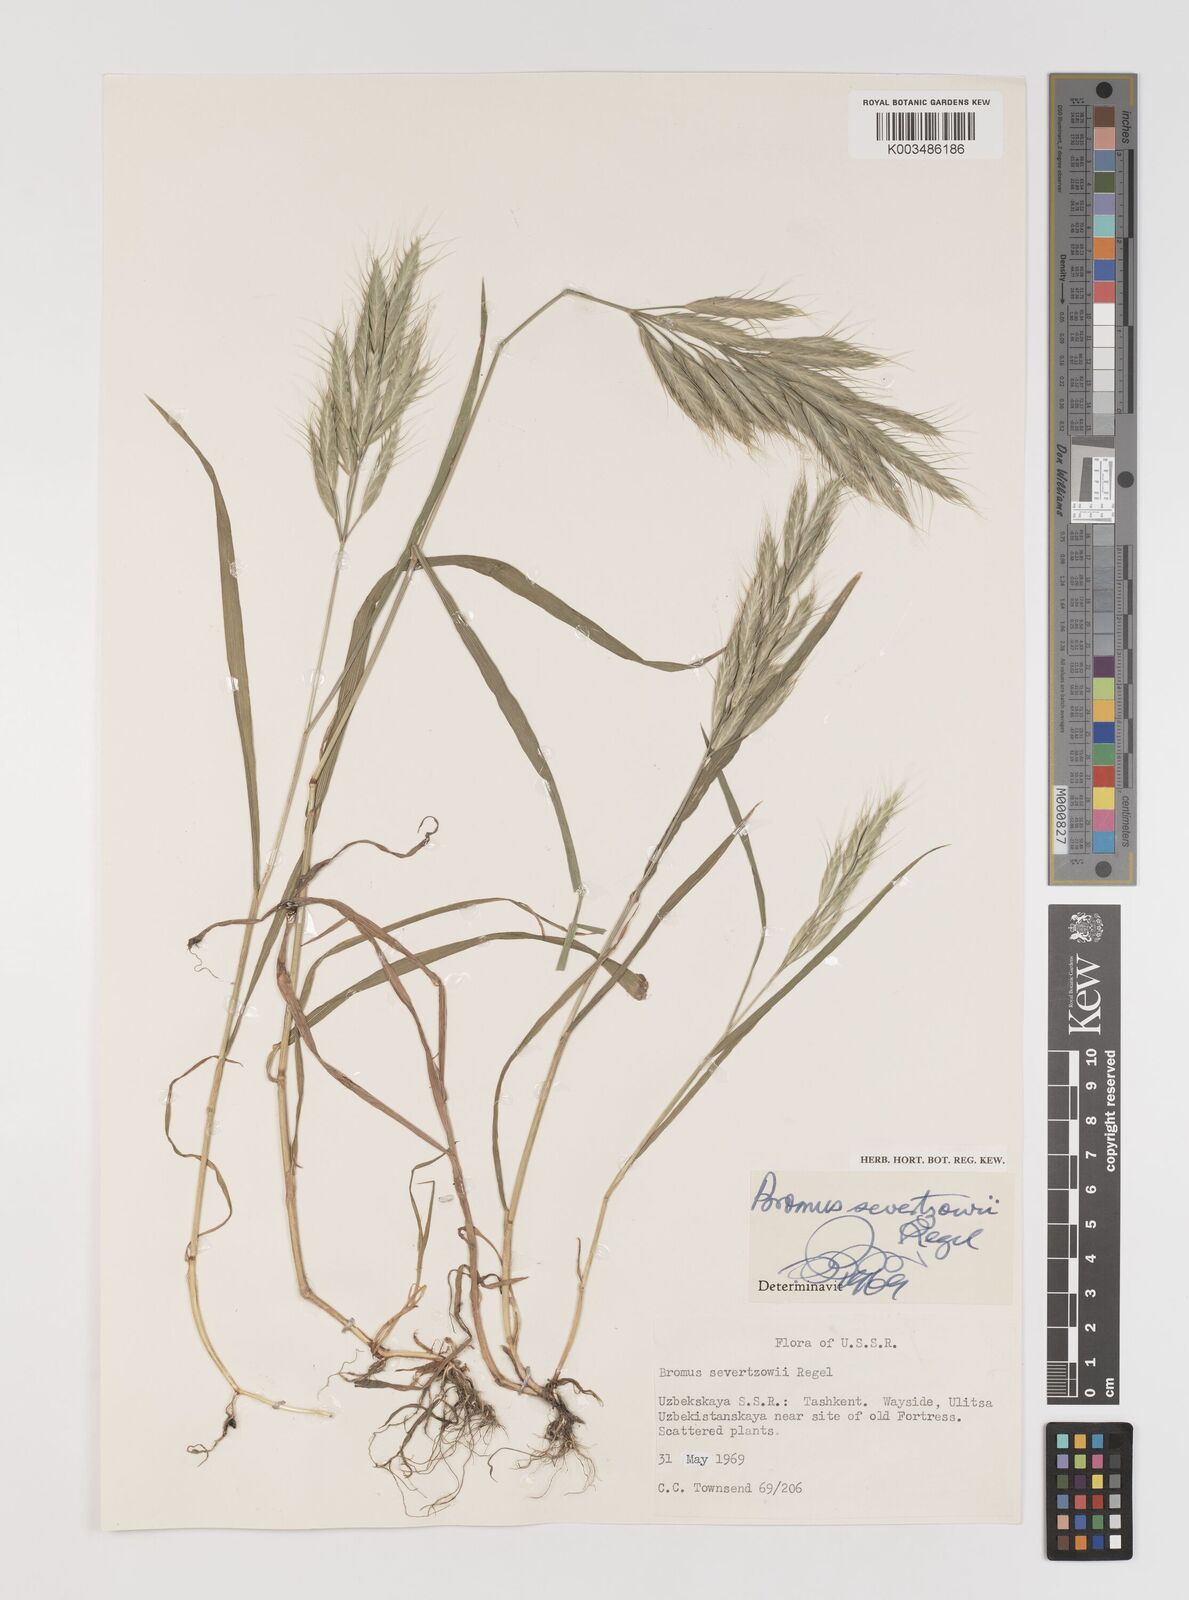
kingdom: Plantae
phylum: Tracheophyta
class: Liliopsida
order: Poales
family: Poaceae
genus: Bromus
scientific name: Bromus lanceolatus
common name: Mediterranean brome
